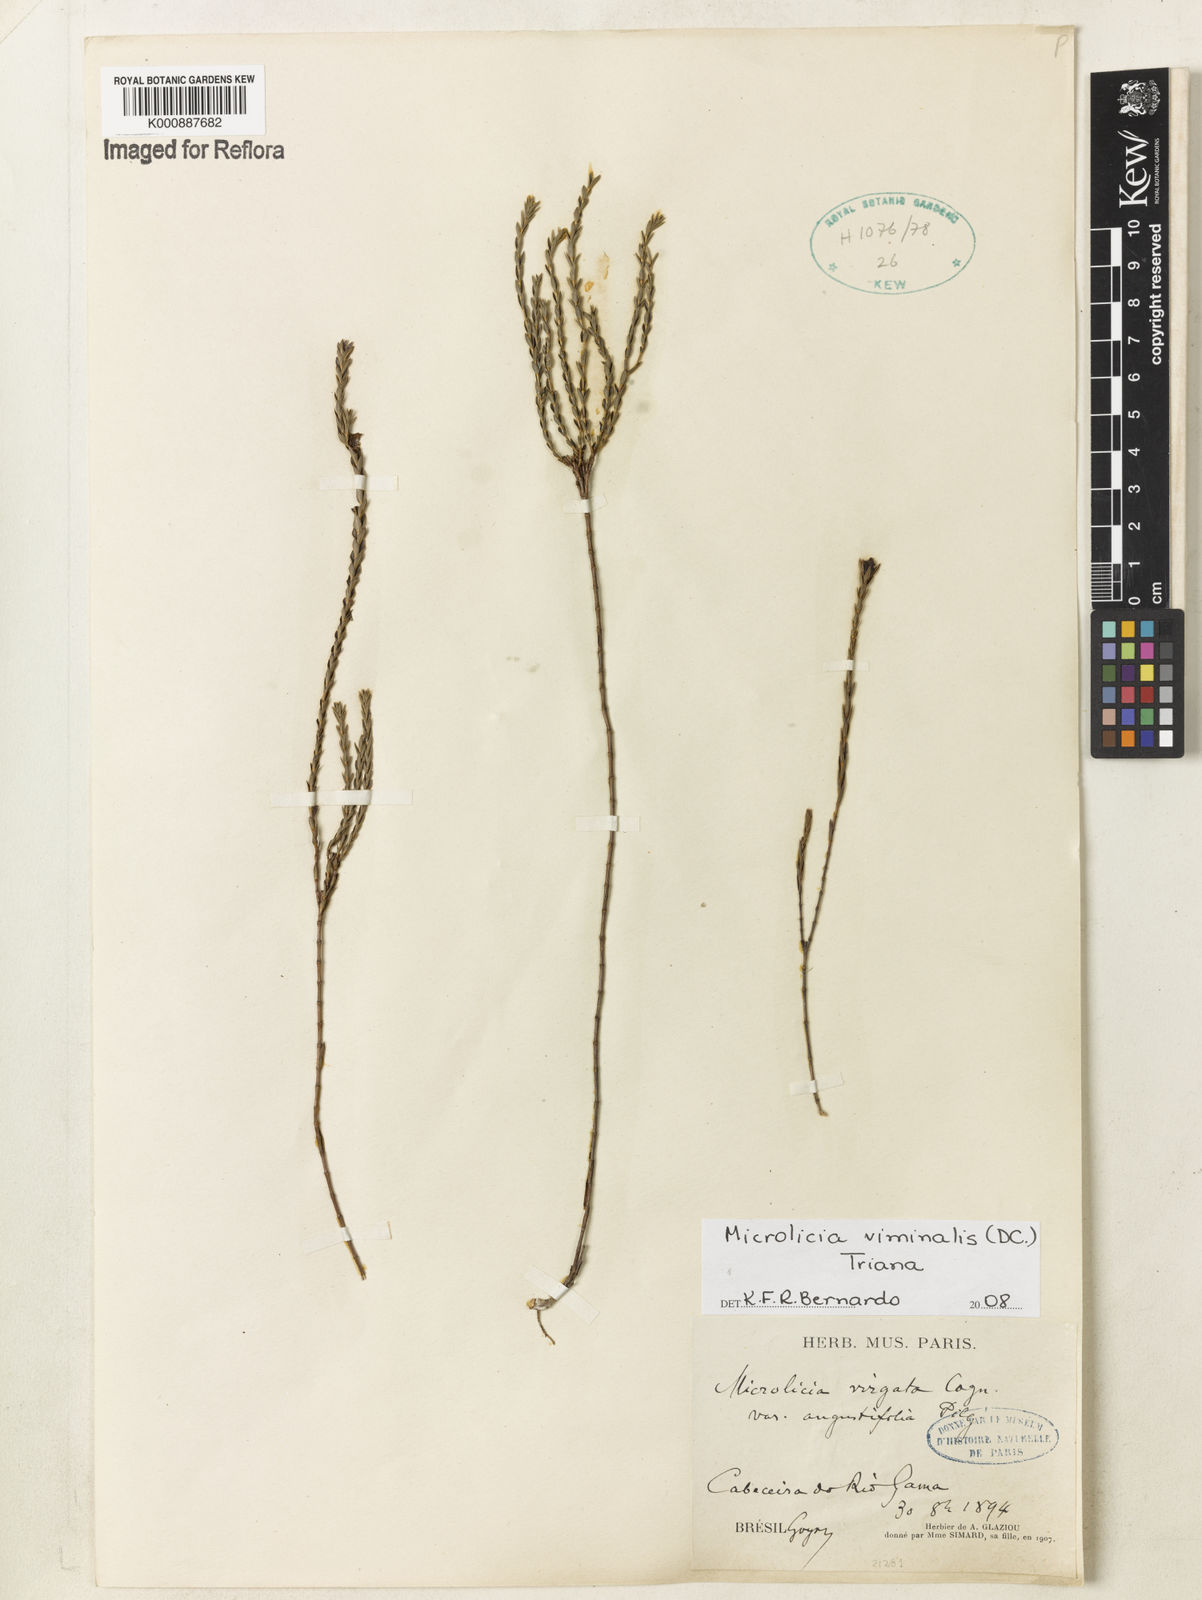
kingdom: Plantae
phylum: Tracheophyta
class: Magnoliopsida
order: Myrtales
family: Melastomataceae
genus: Microlicia
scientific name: Microlicia viminalis
